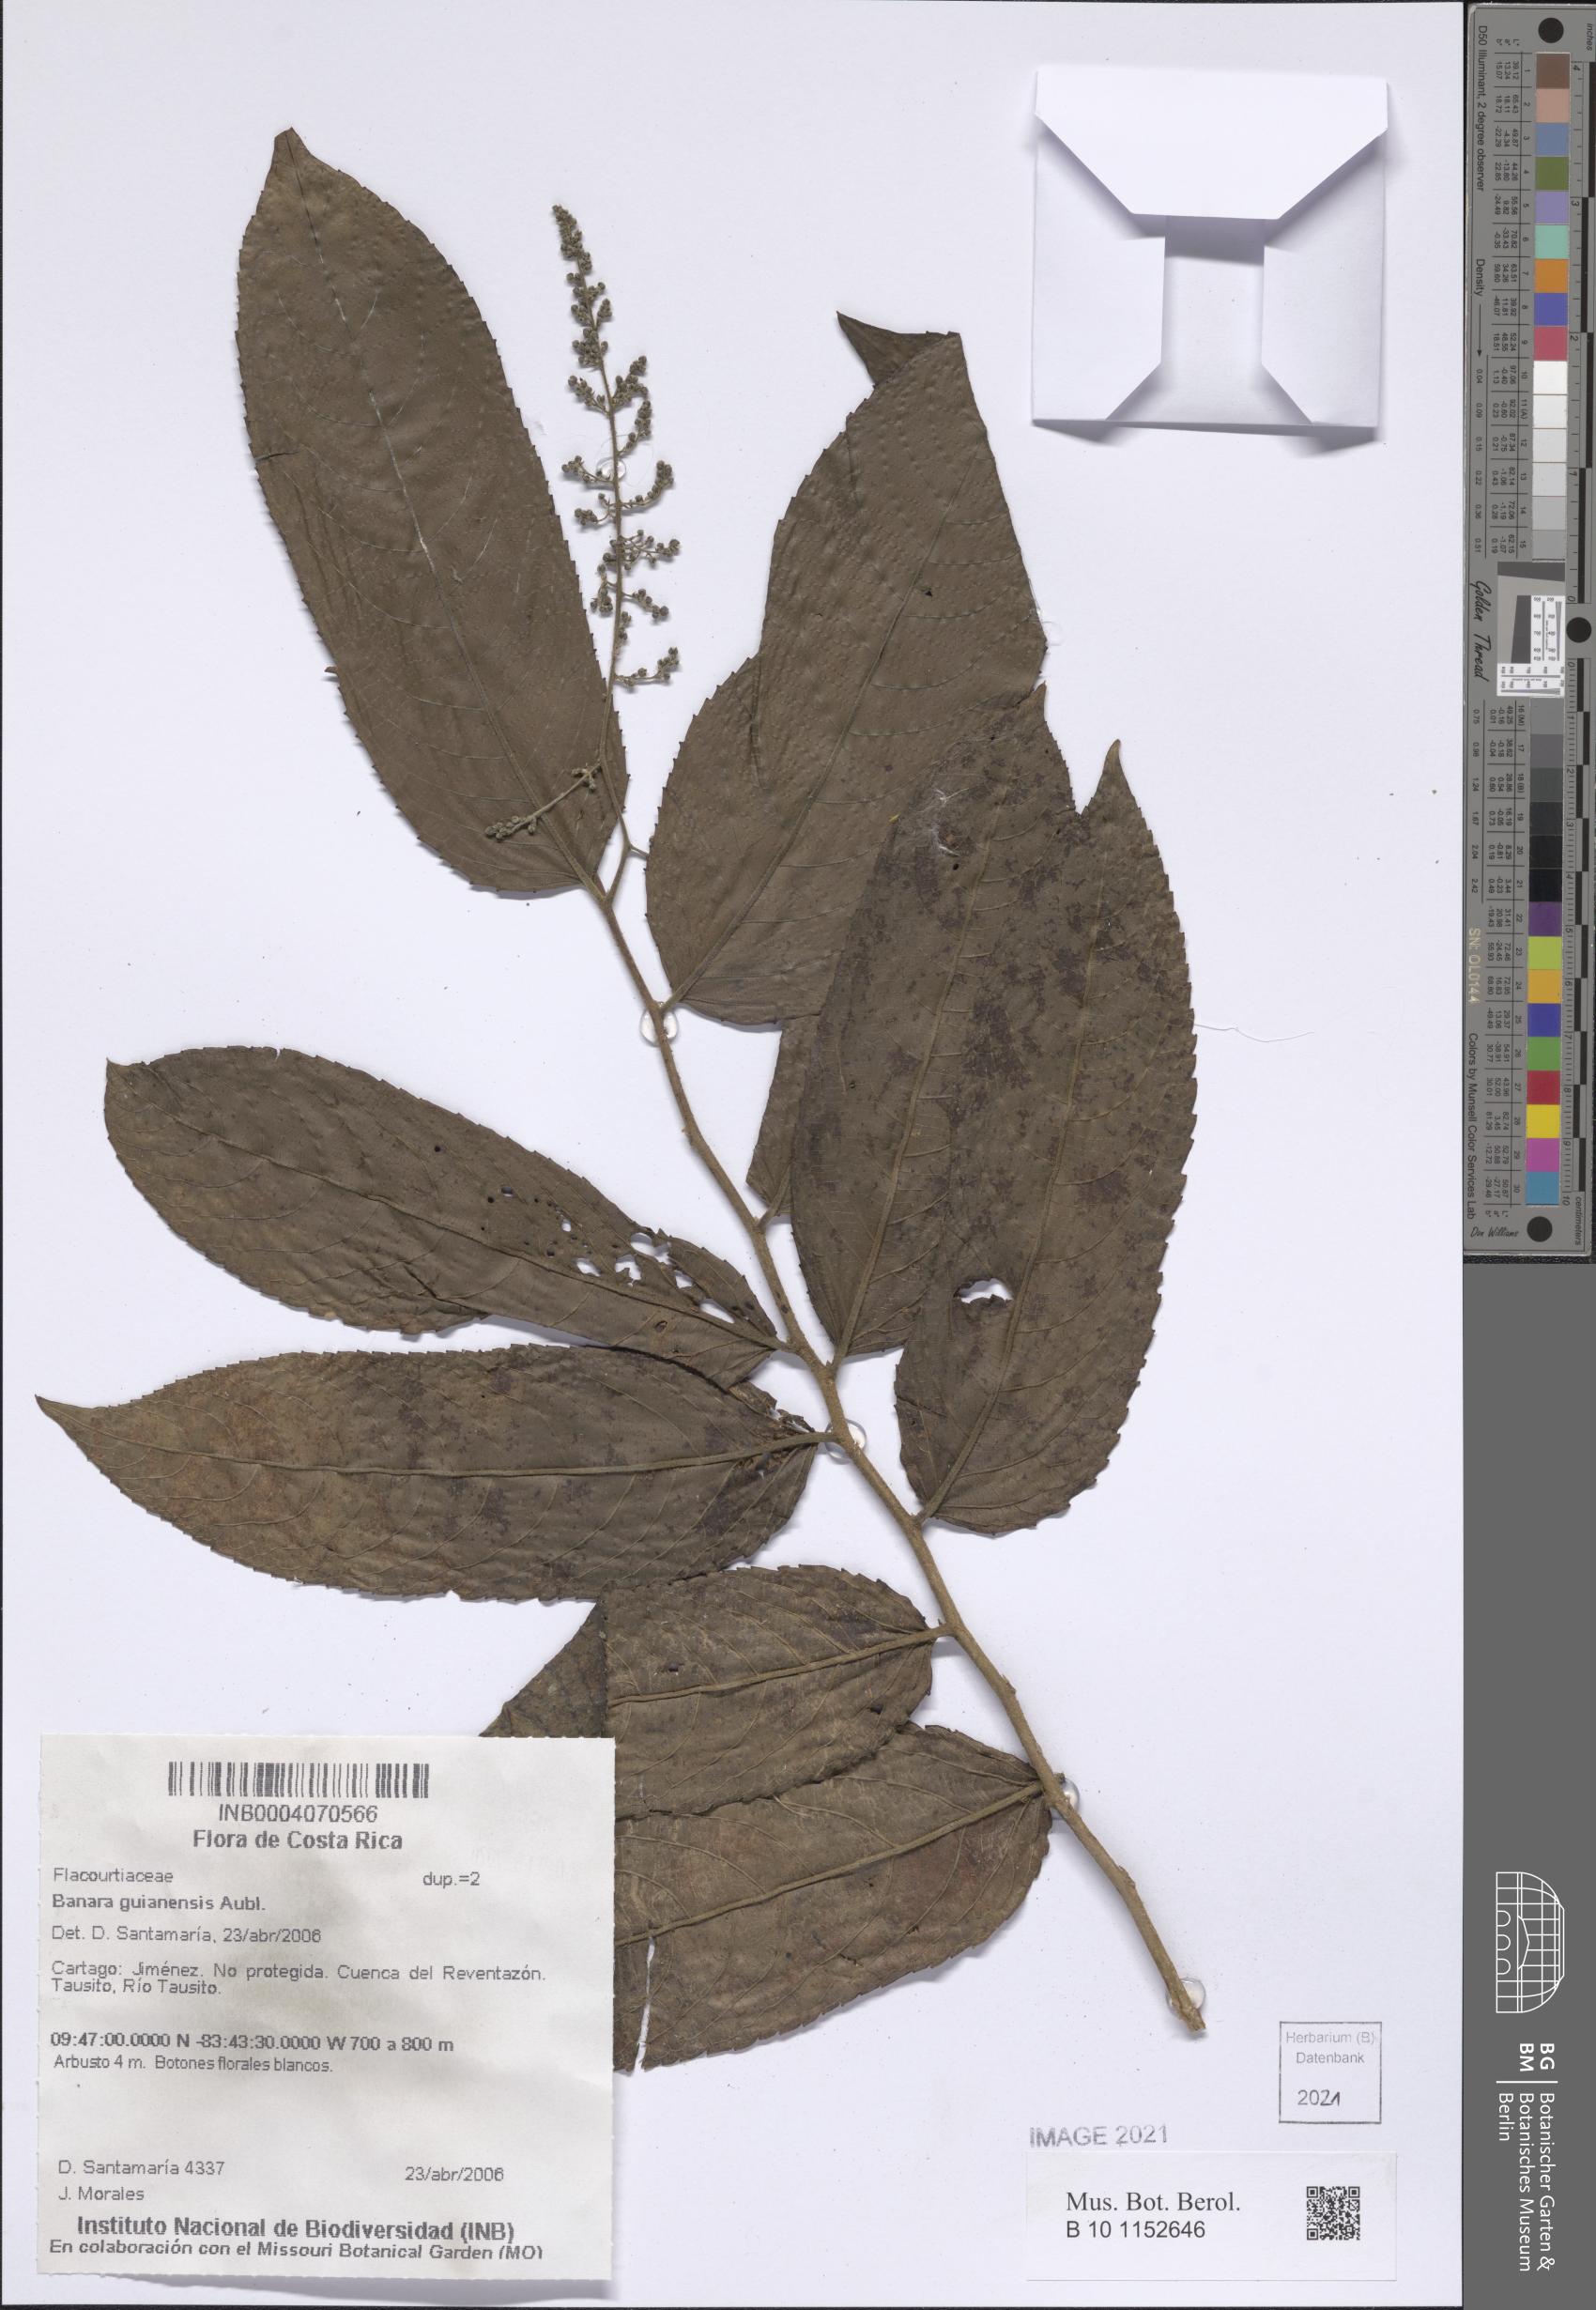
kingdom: Plantae
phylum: Tracheophyta
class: Magnoliopsida
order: Malpighiales
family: Salicaceae
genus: Banara
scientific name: Banara guianensis
